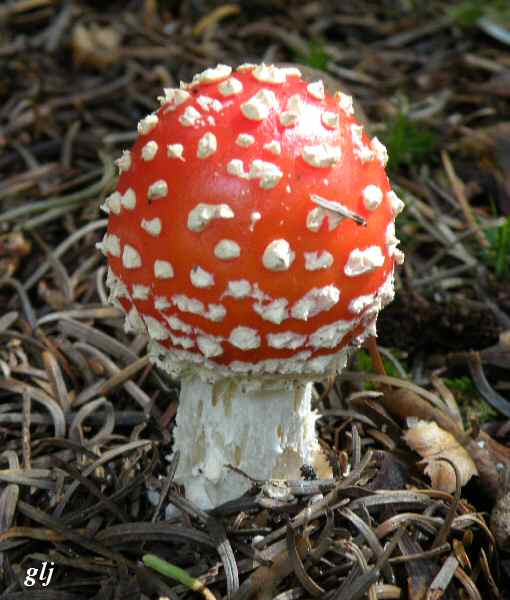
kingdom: Fungi
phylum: Basidiomycota
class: Agaricomycetes
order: Agaricales
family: Amanitaceae
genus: Amanita
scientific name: Amanita muscaria
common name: rød fluesvamp
